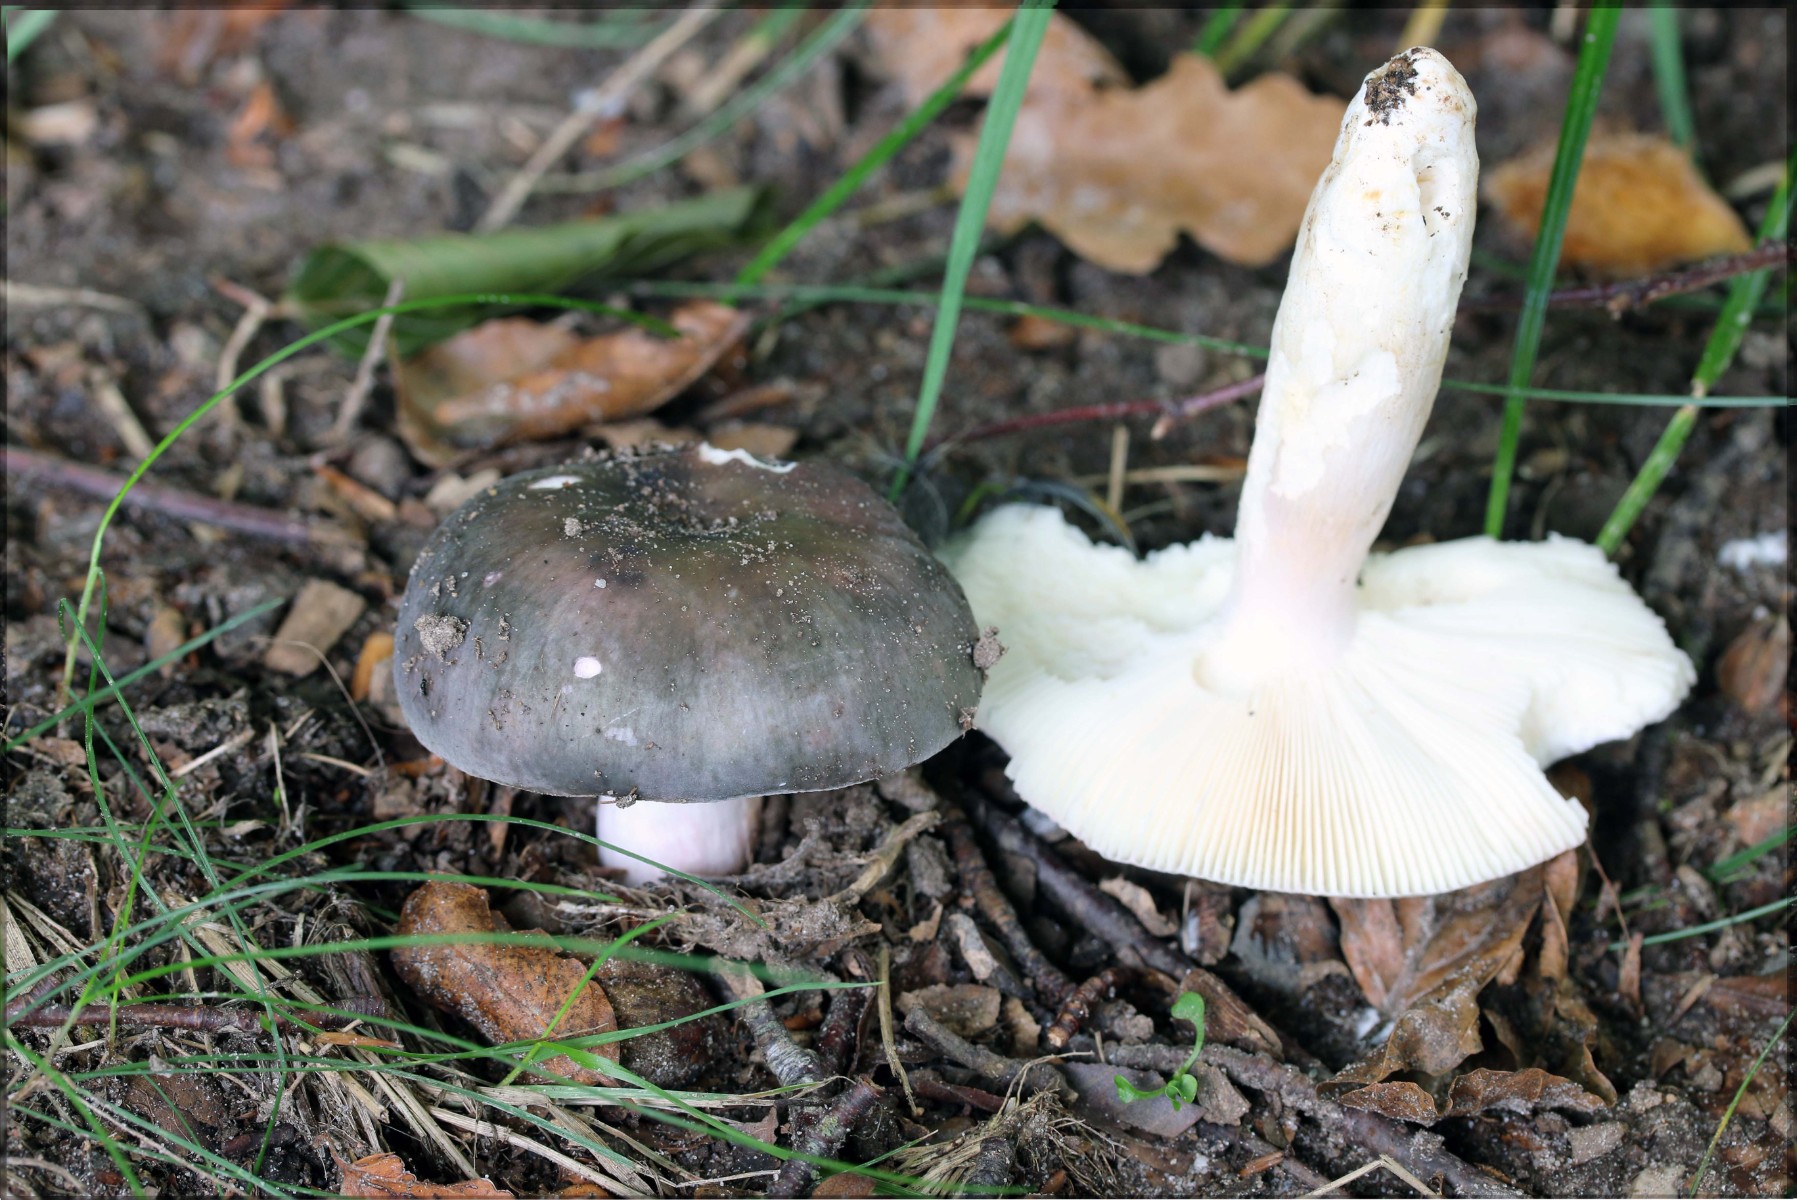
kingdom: Fungi
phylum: Basidiomycota
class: Agaricomycetes
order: Russulales
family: Russulaceae
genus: Russula
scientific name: Russula ionochlora
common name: violetgrøn skørhat
